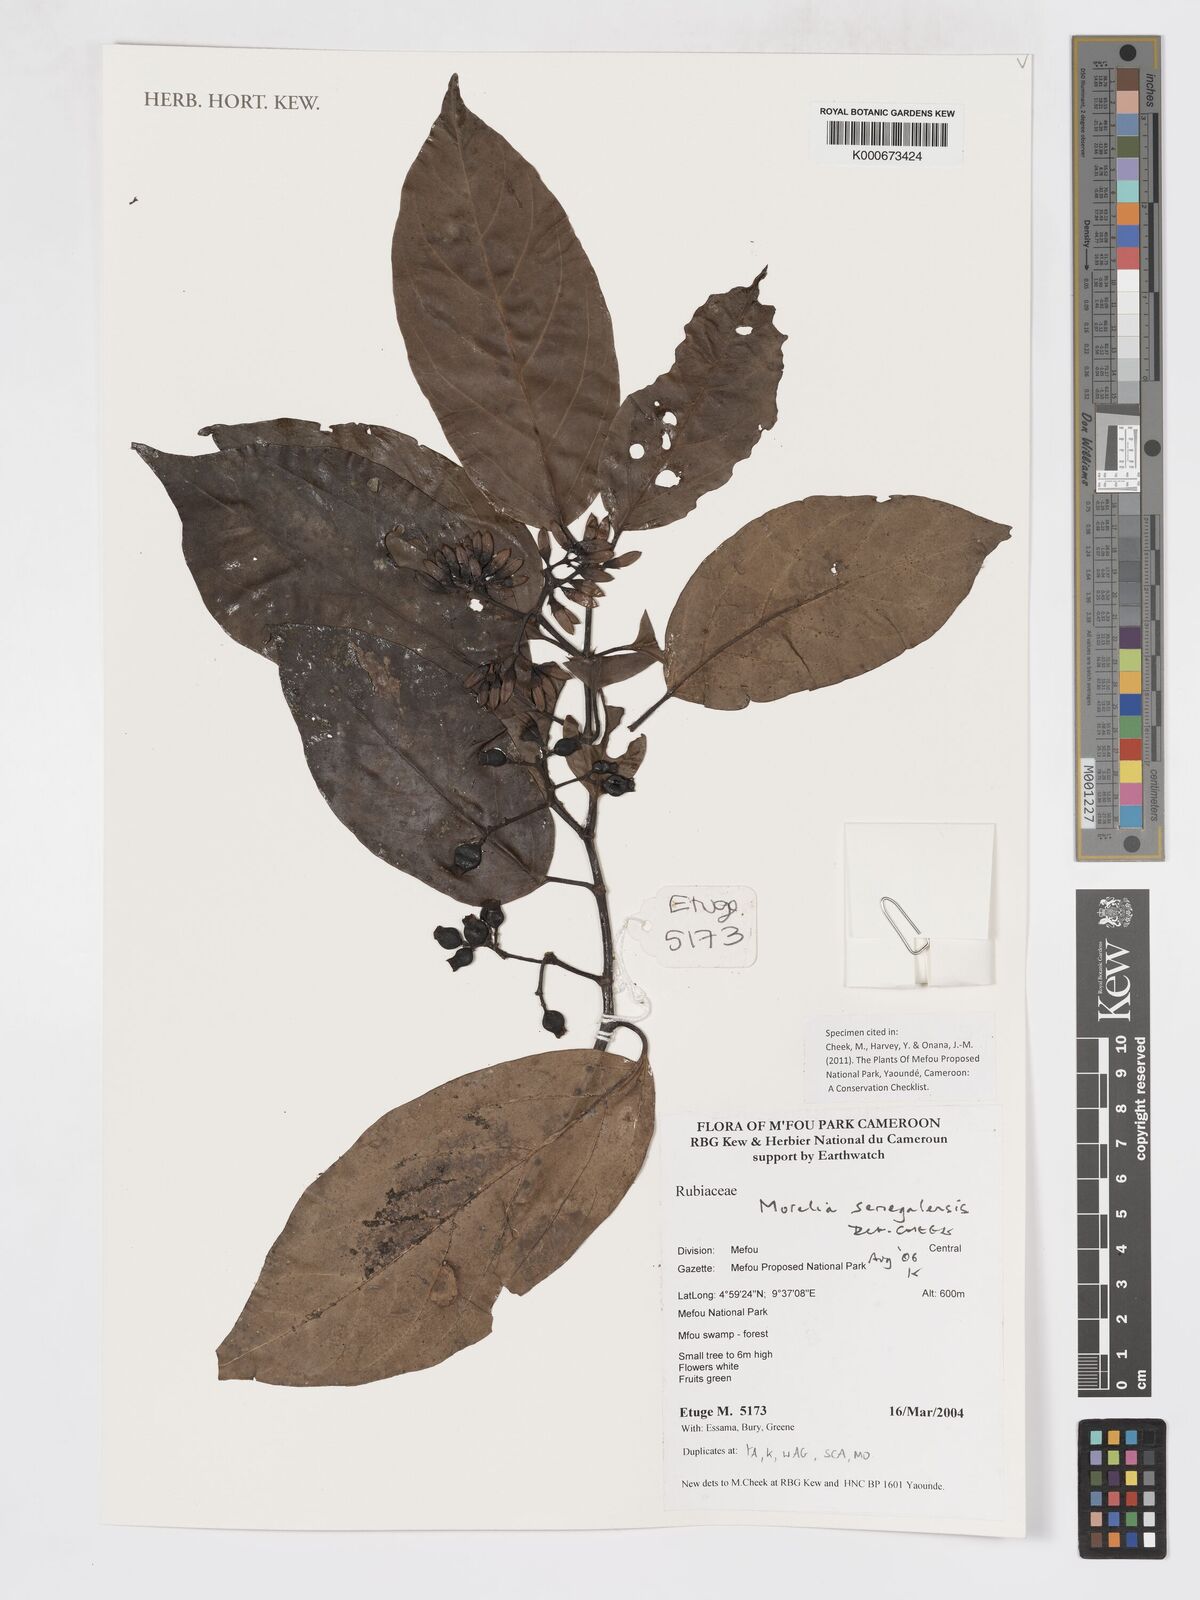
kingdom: Plantae
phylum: Tracheophyta
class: Magnoliopsida
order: Gentianales
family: Rubiaceae
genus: Morelia
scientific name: Morelia senegalensis
